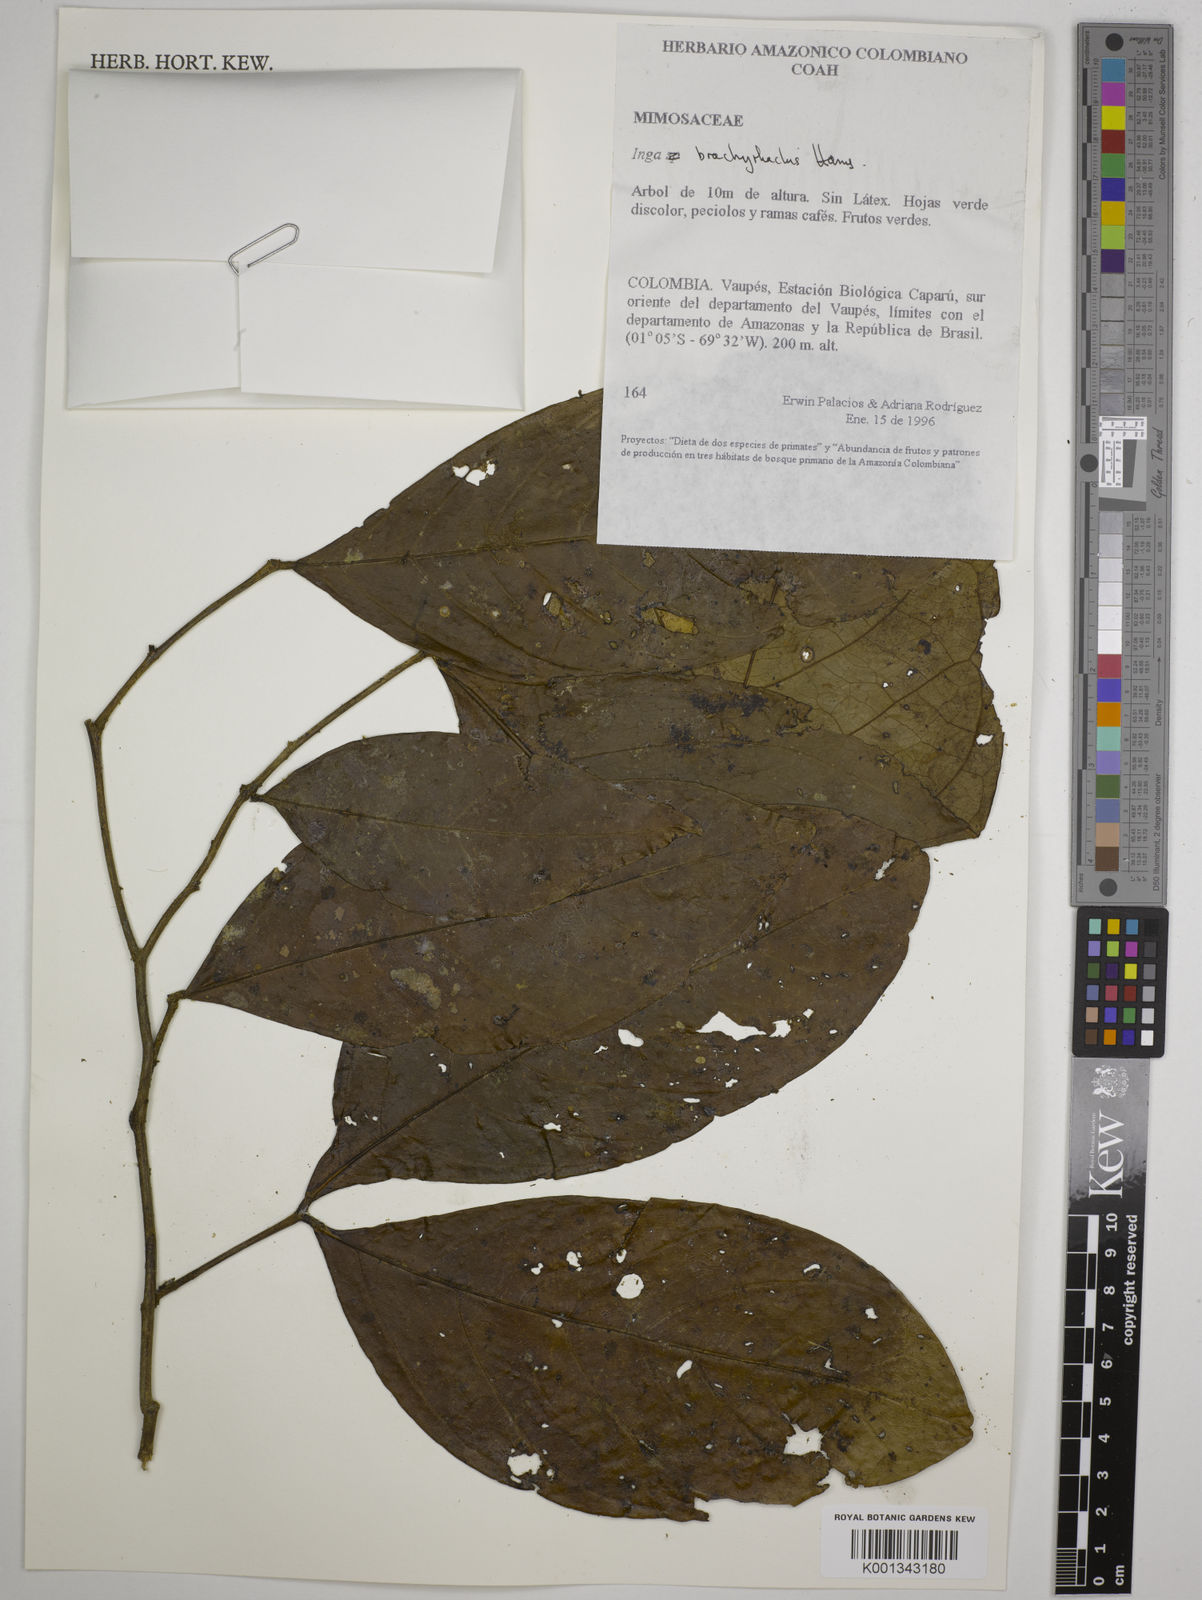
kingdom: Plantae
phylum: Tracheophyta
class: Magnoliopsida
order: Fabales
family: Fabaceae
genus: Inga
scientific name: Inga brachyrhachis
